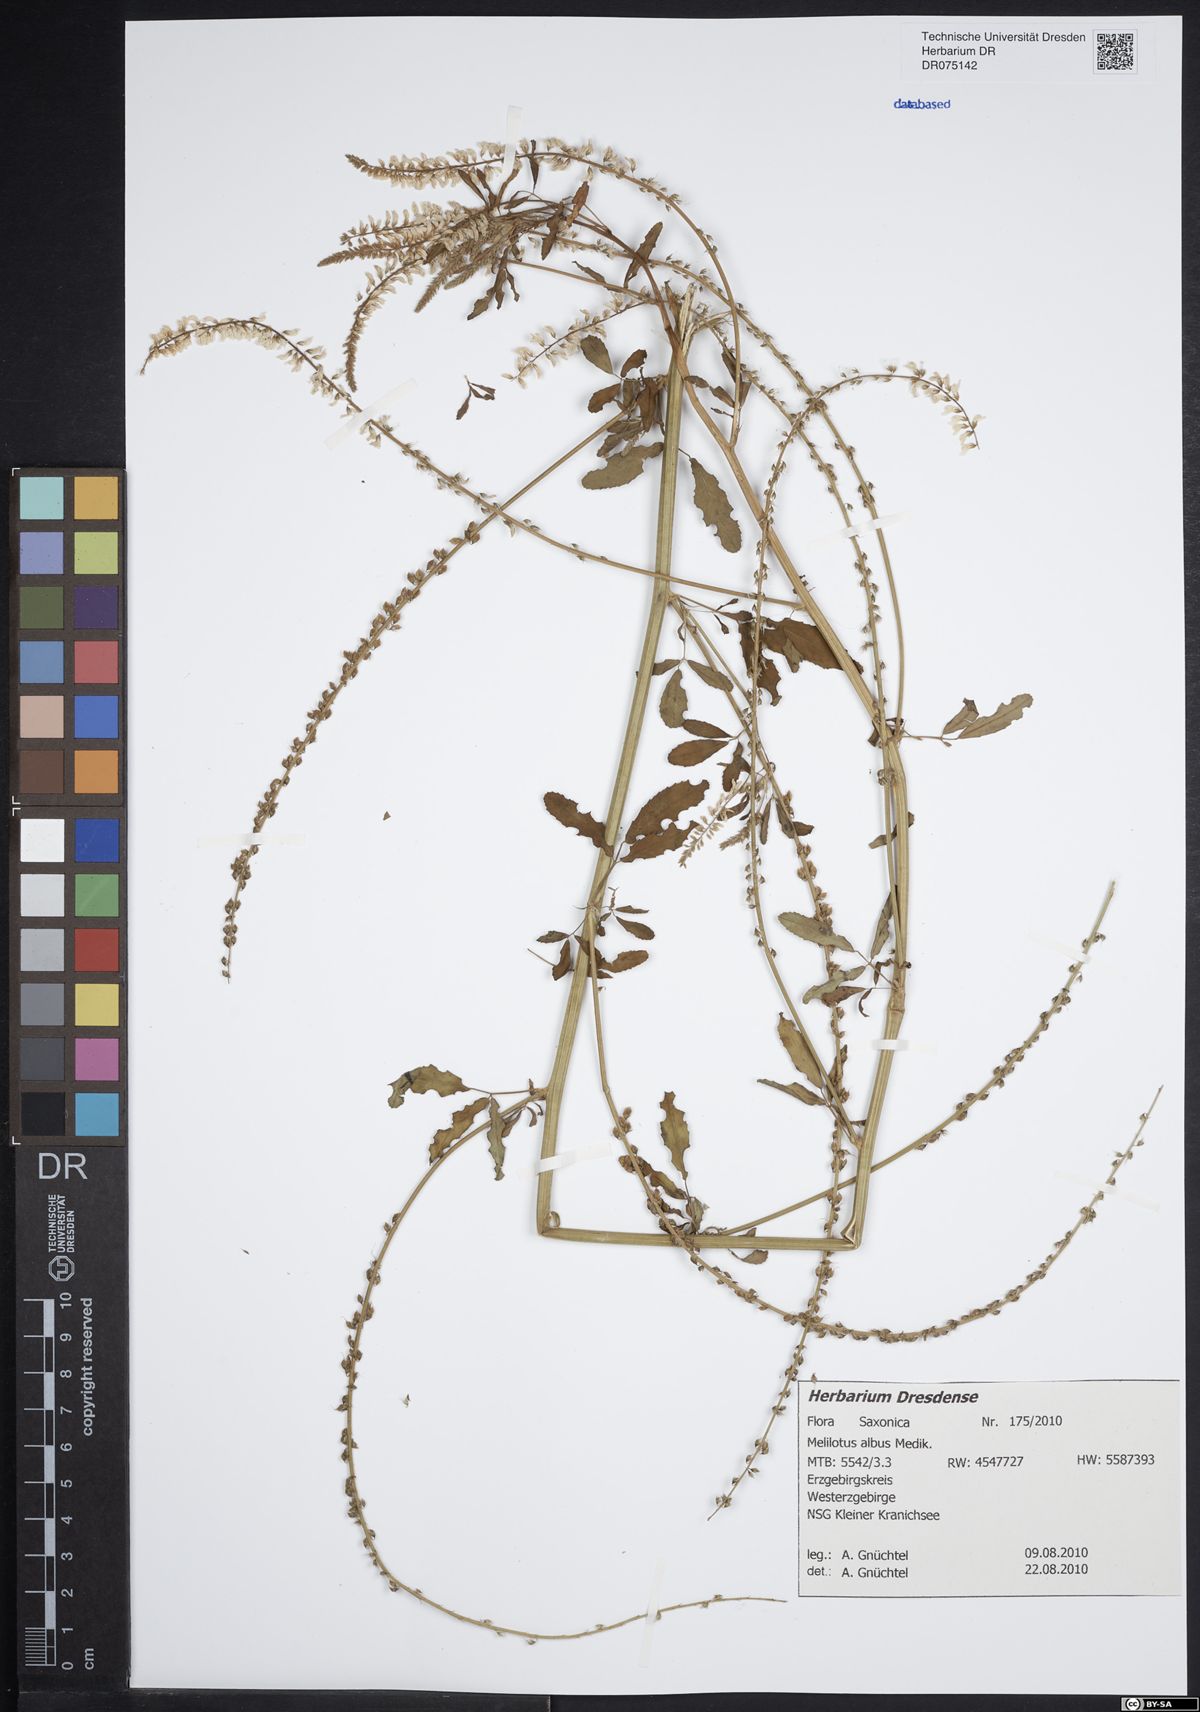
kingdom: Plantae
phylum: Tracheophyta
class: Magnoliopsida
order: Fabales
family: Fabaceae
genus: Melilotus
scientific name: Melilotus albus
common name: White melilot
